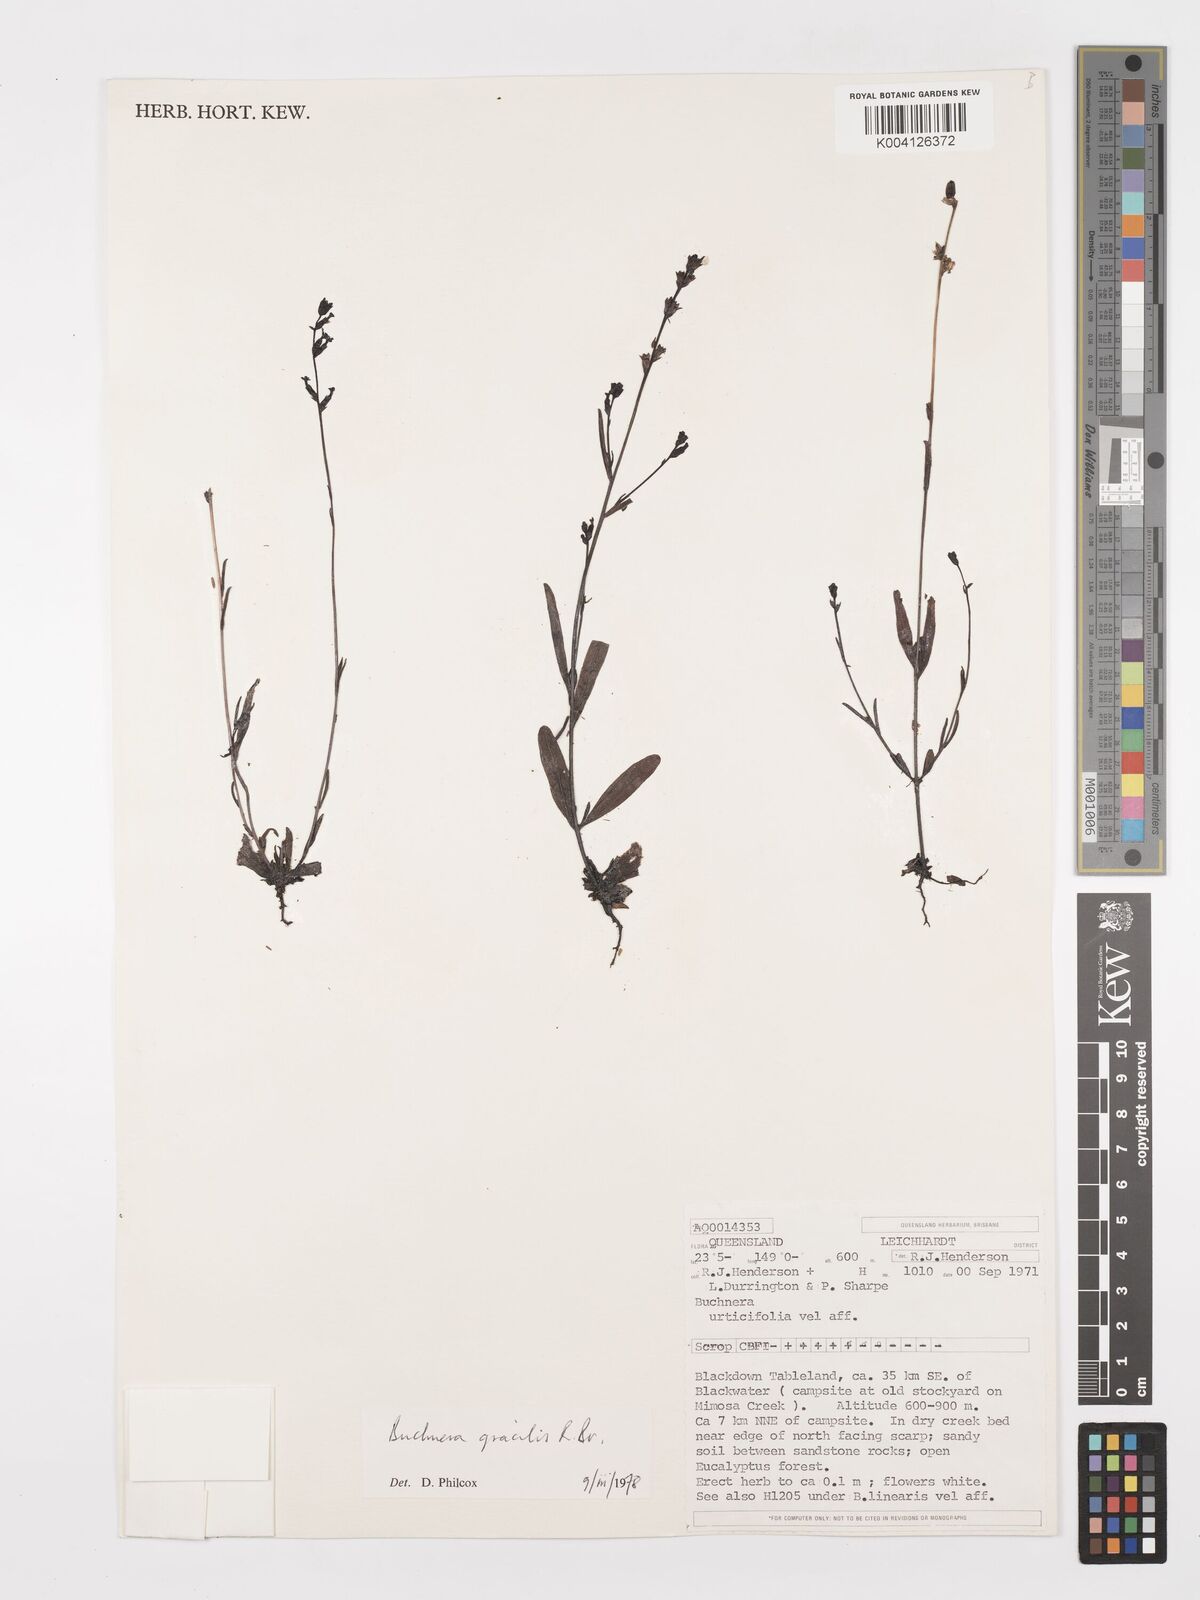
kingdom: Plantae
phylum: Tracheophyta
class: Magnoliopsida
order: Lamiales
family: Orobanchaceae
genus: Buchnera
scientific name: Buchnera gracilis
